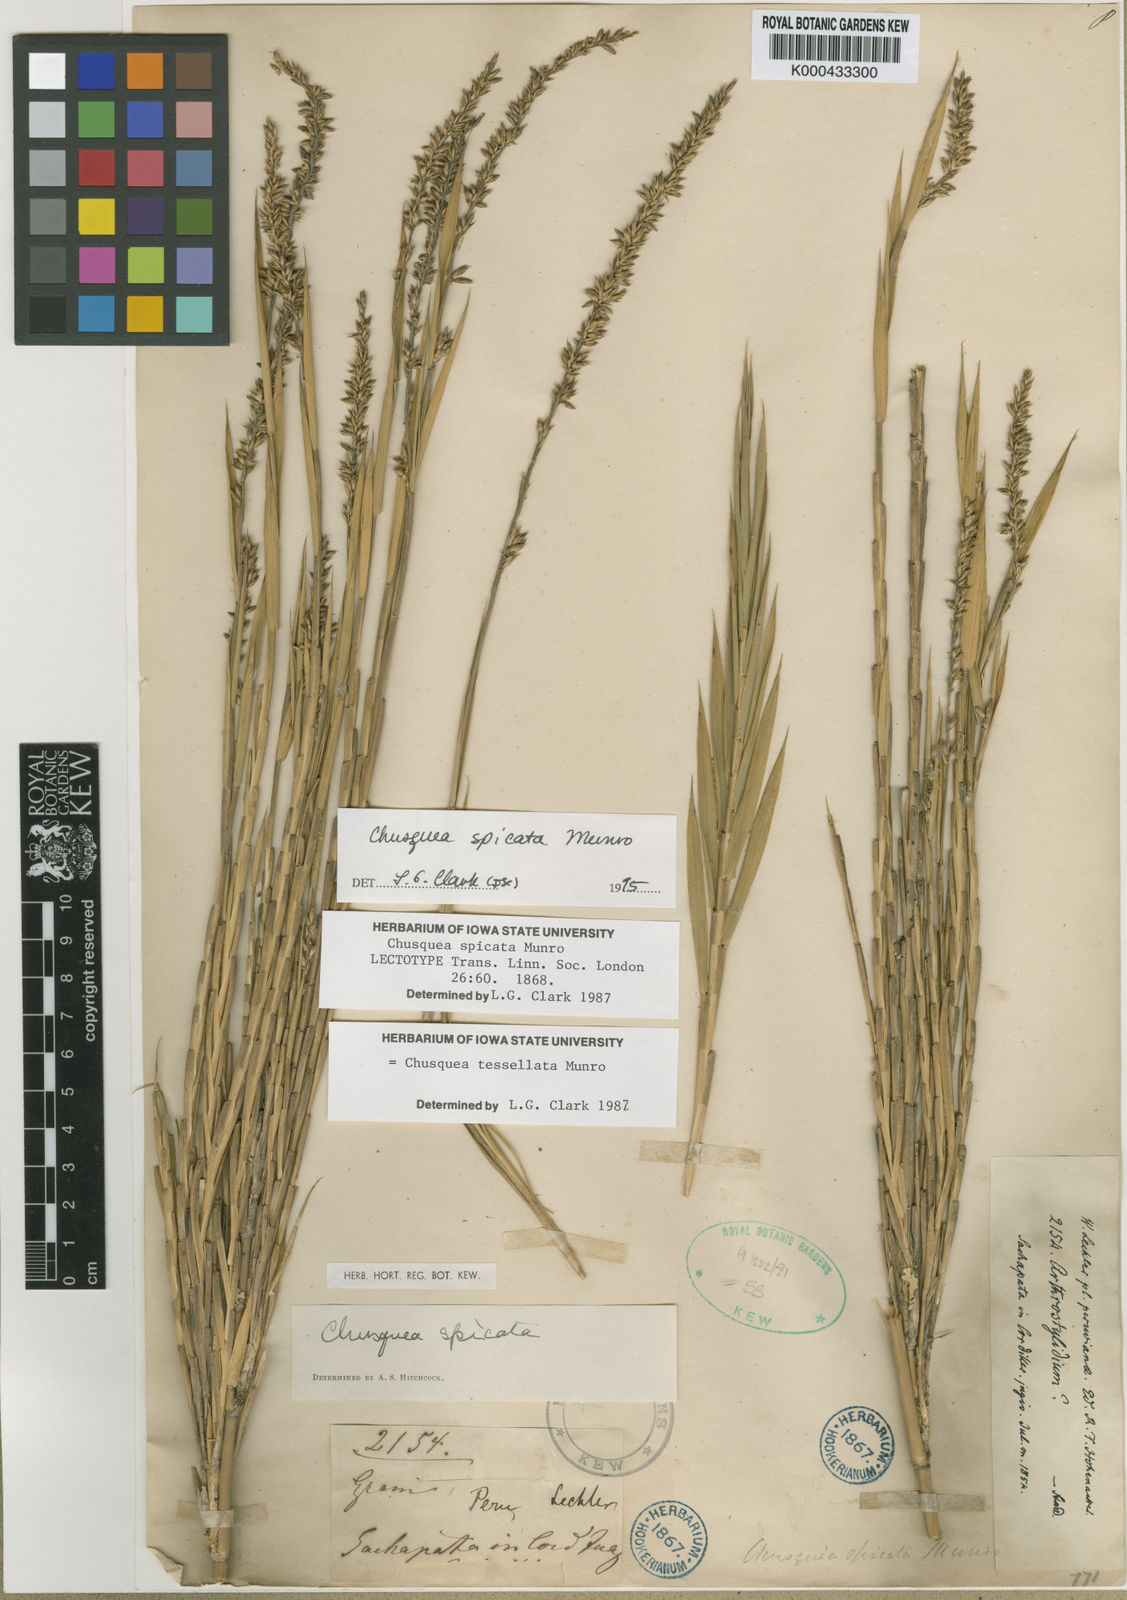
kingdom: Plantae
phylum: Tracheophyta
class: Liliopsida
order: Poales
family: Poaceae
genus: Chusquea
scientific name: Chusquea tessellata
